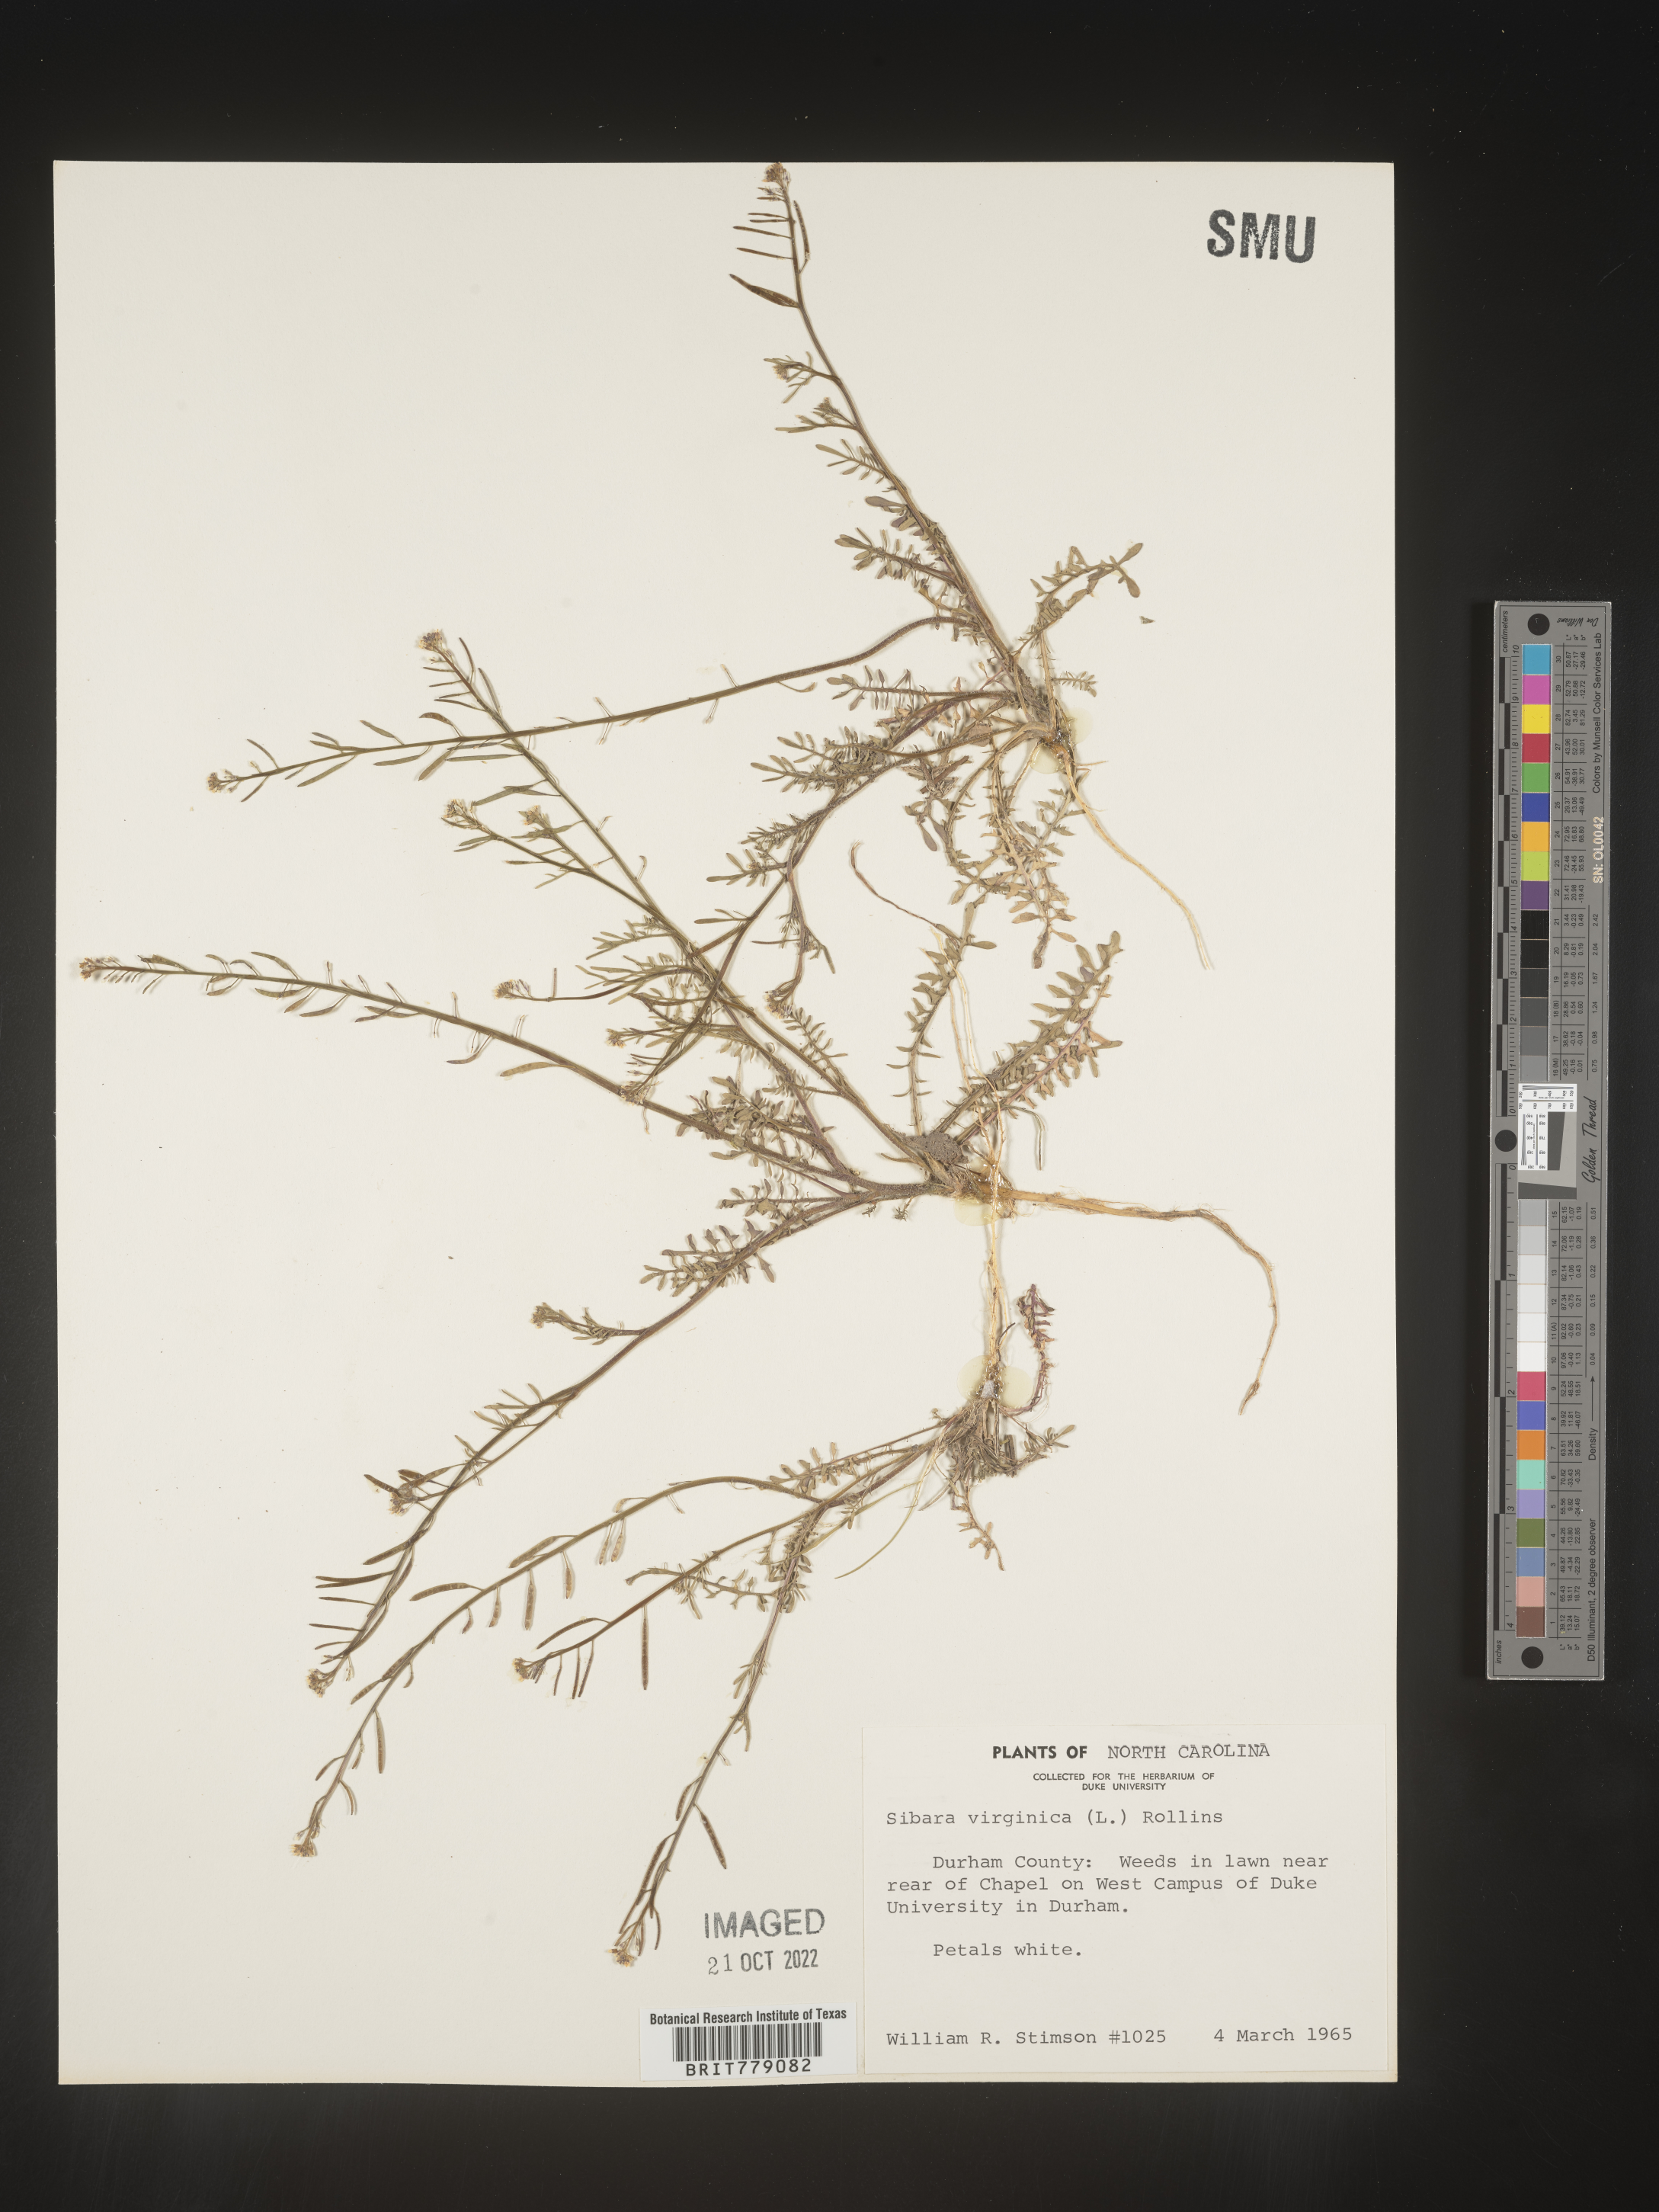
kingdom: Plantae
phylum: Tracheophyta
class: Magnoliopsida
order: Brassicales
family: Brassicaceae
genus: Sibara
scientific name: Sibara
